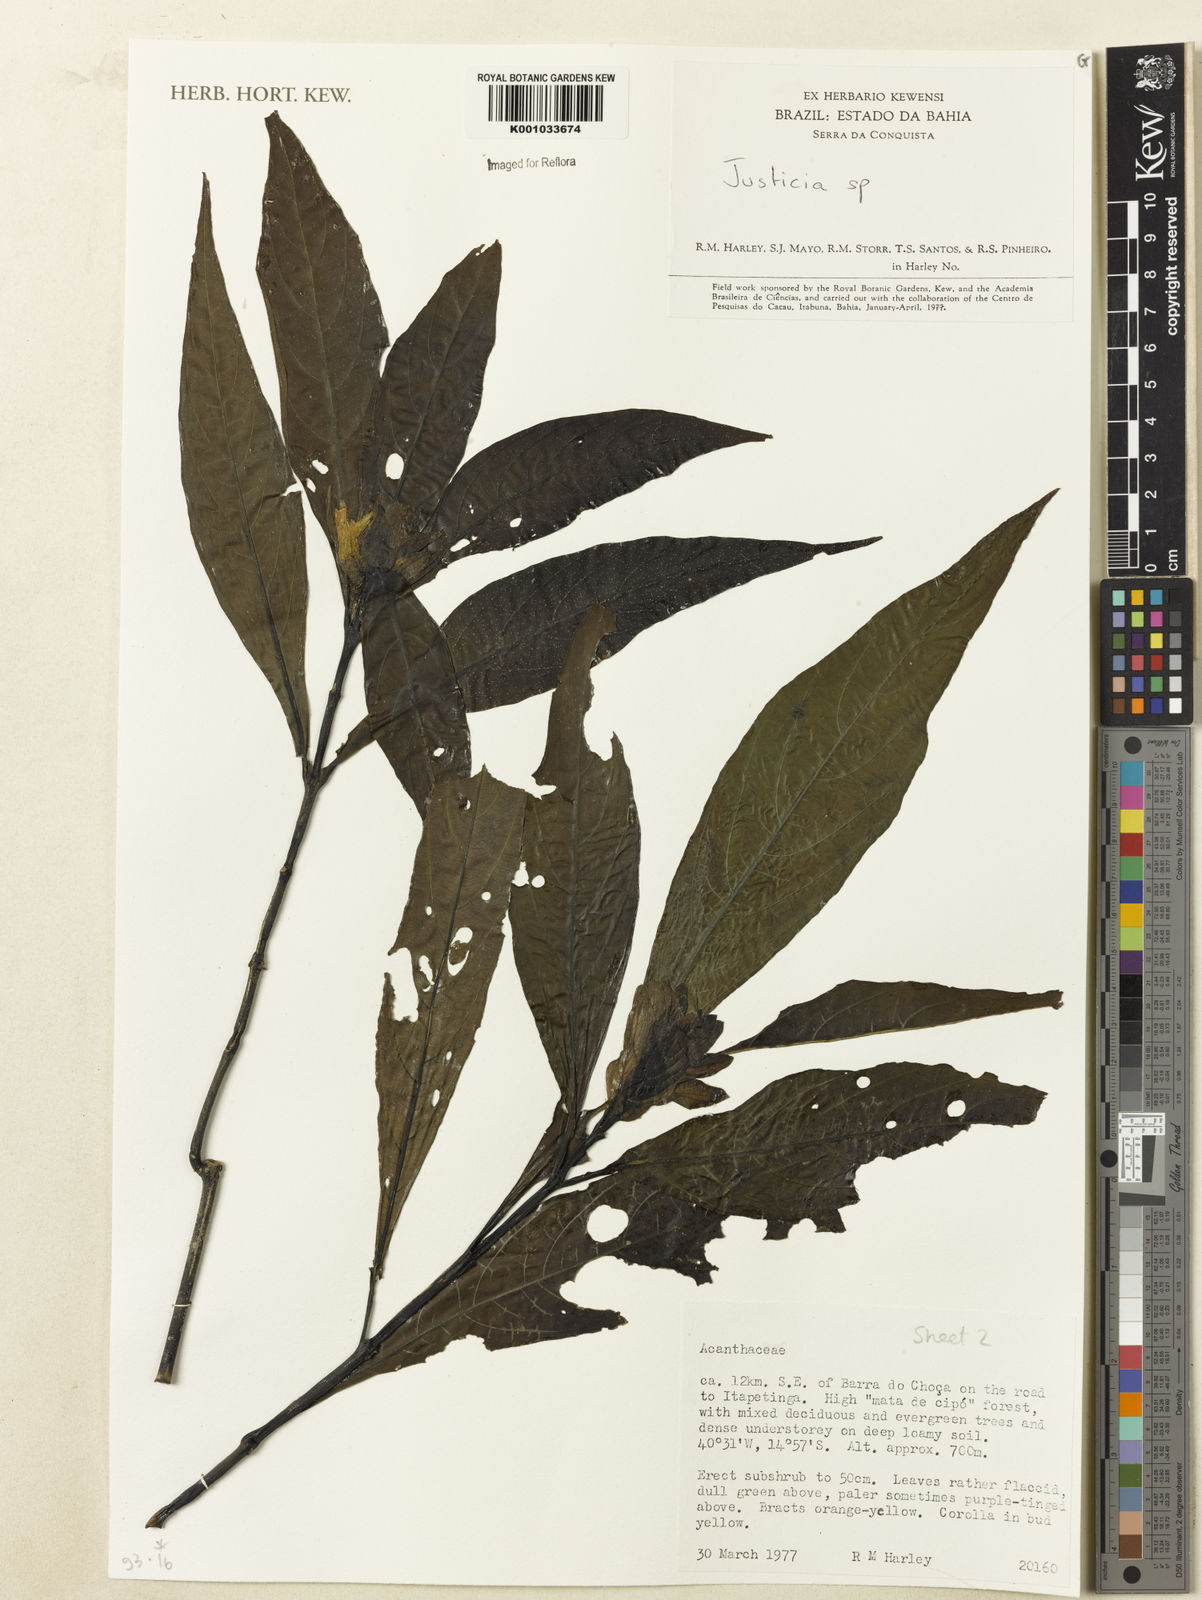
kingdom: Plantae
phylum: Tracheophyta
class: Magnoliopsida
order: Lamiales
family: Acanthaceae
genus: Justicia
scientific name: Justicia
